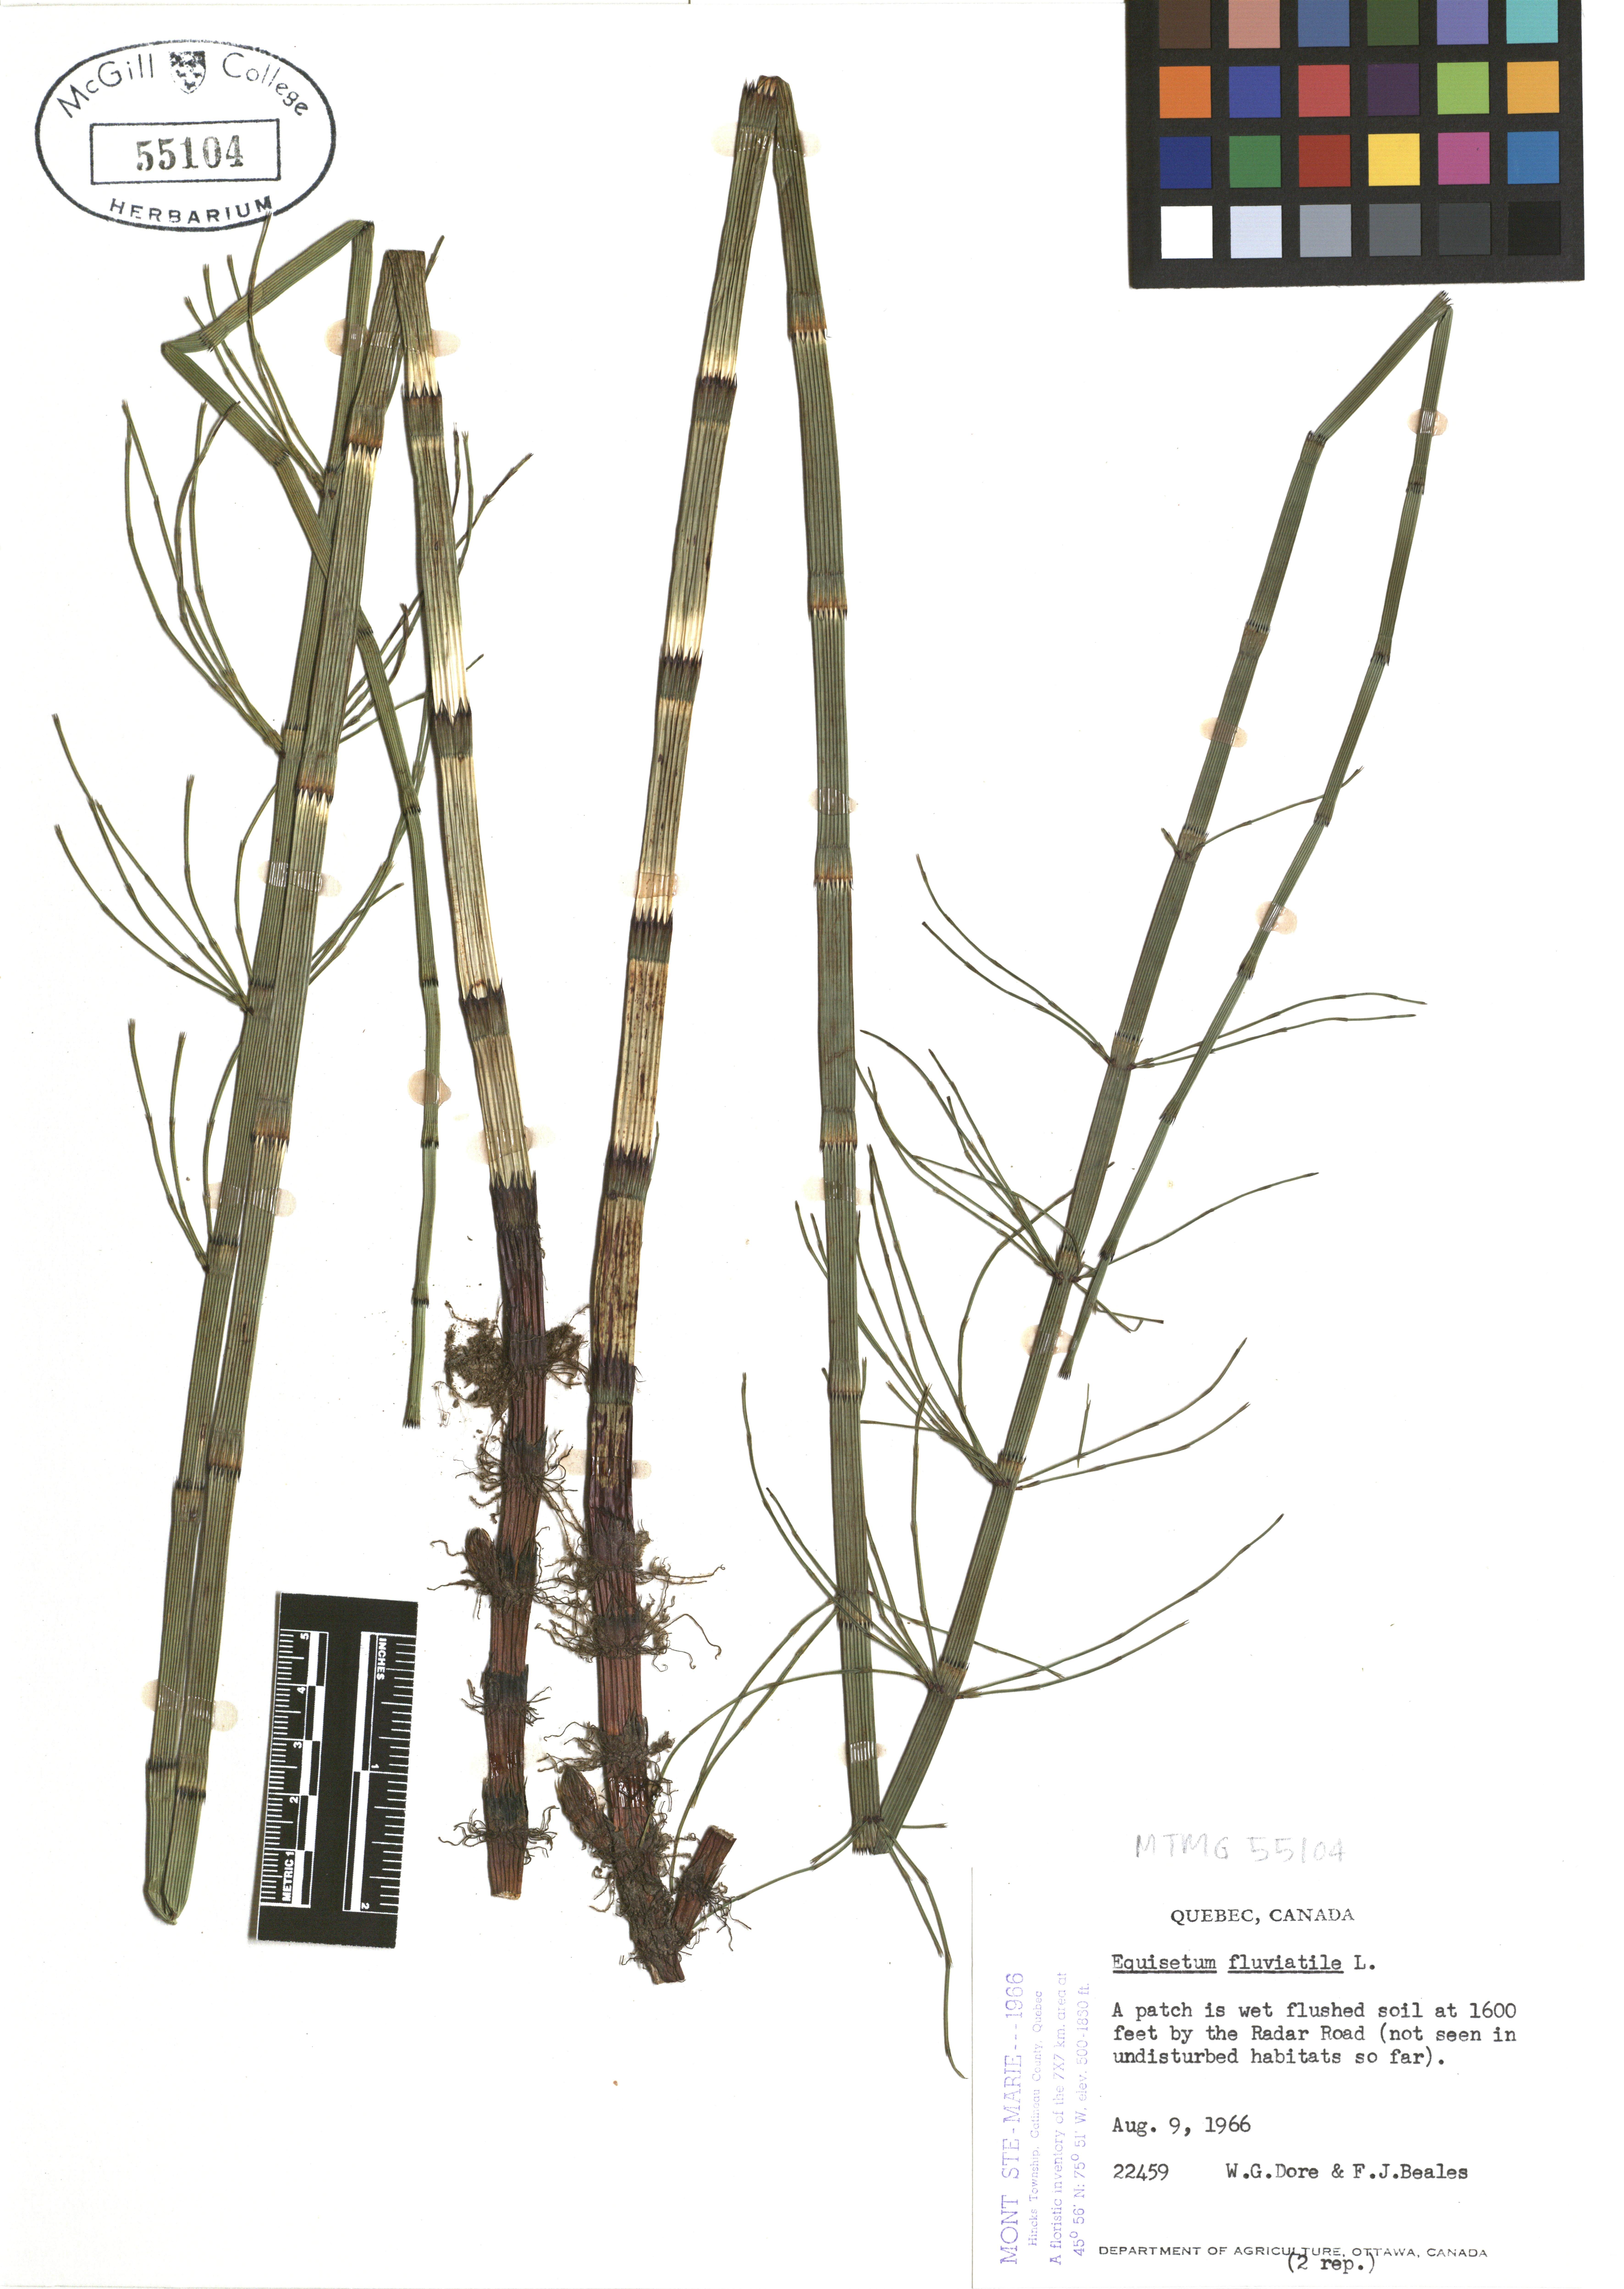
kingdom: Plantae
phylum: Tracheophyta
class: Polypodiopsida
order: Equisetales
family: Equisetaceae
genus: Equisetum
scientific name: Equisetum fluviatile
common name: Water horsetail
